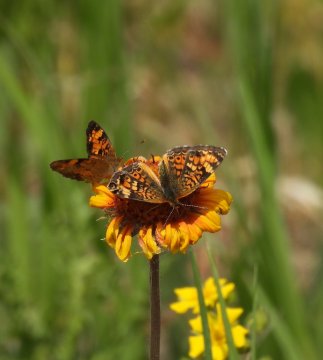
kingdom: Animalia
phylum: Arthropoda
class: Insecta
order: Lepidoptera
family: Nymphalidae
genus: Phyciodes
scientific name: Phyciodes tharos
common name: Northern Crescent
